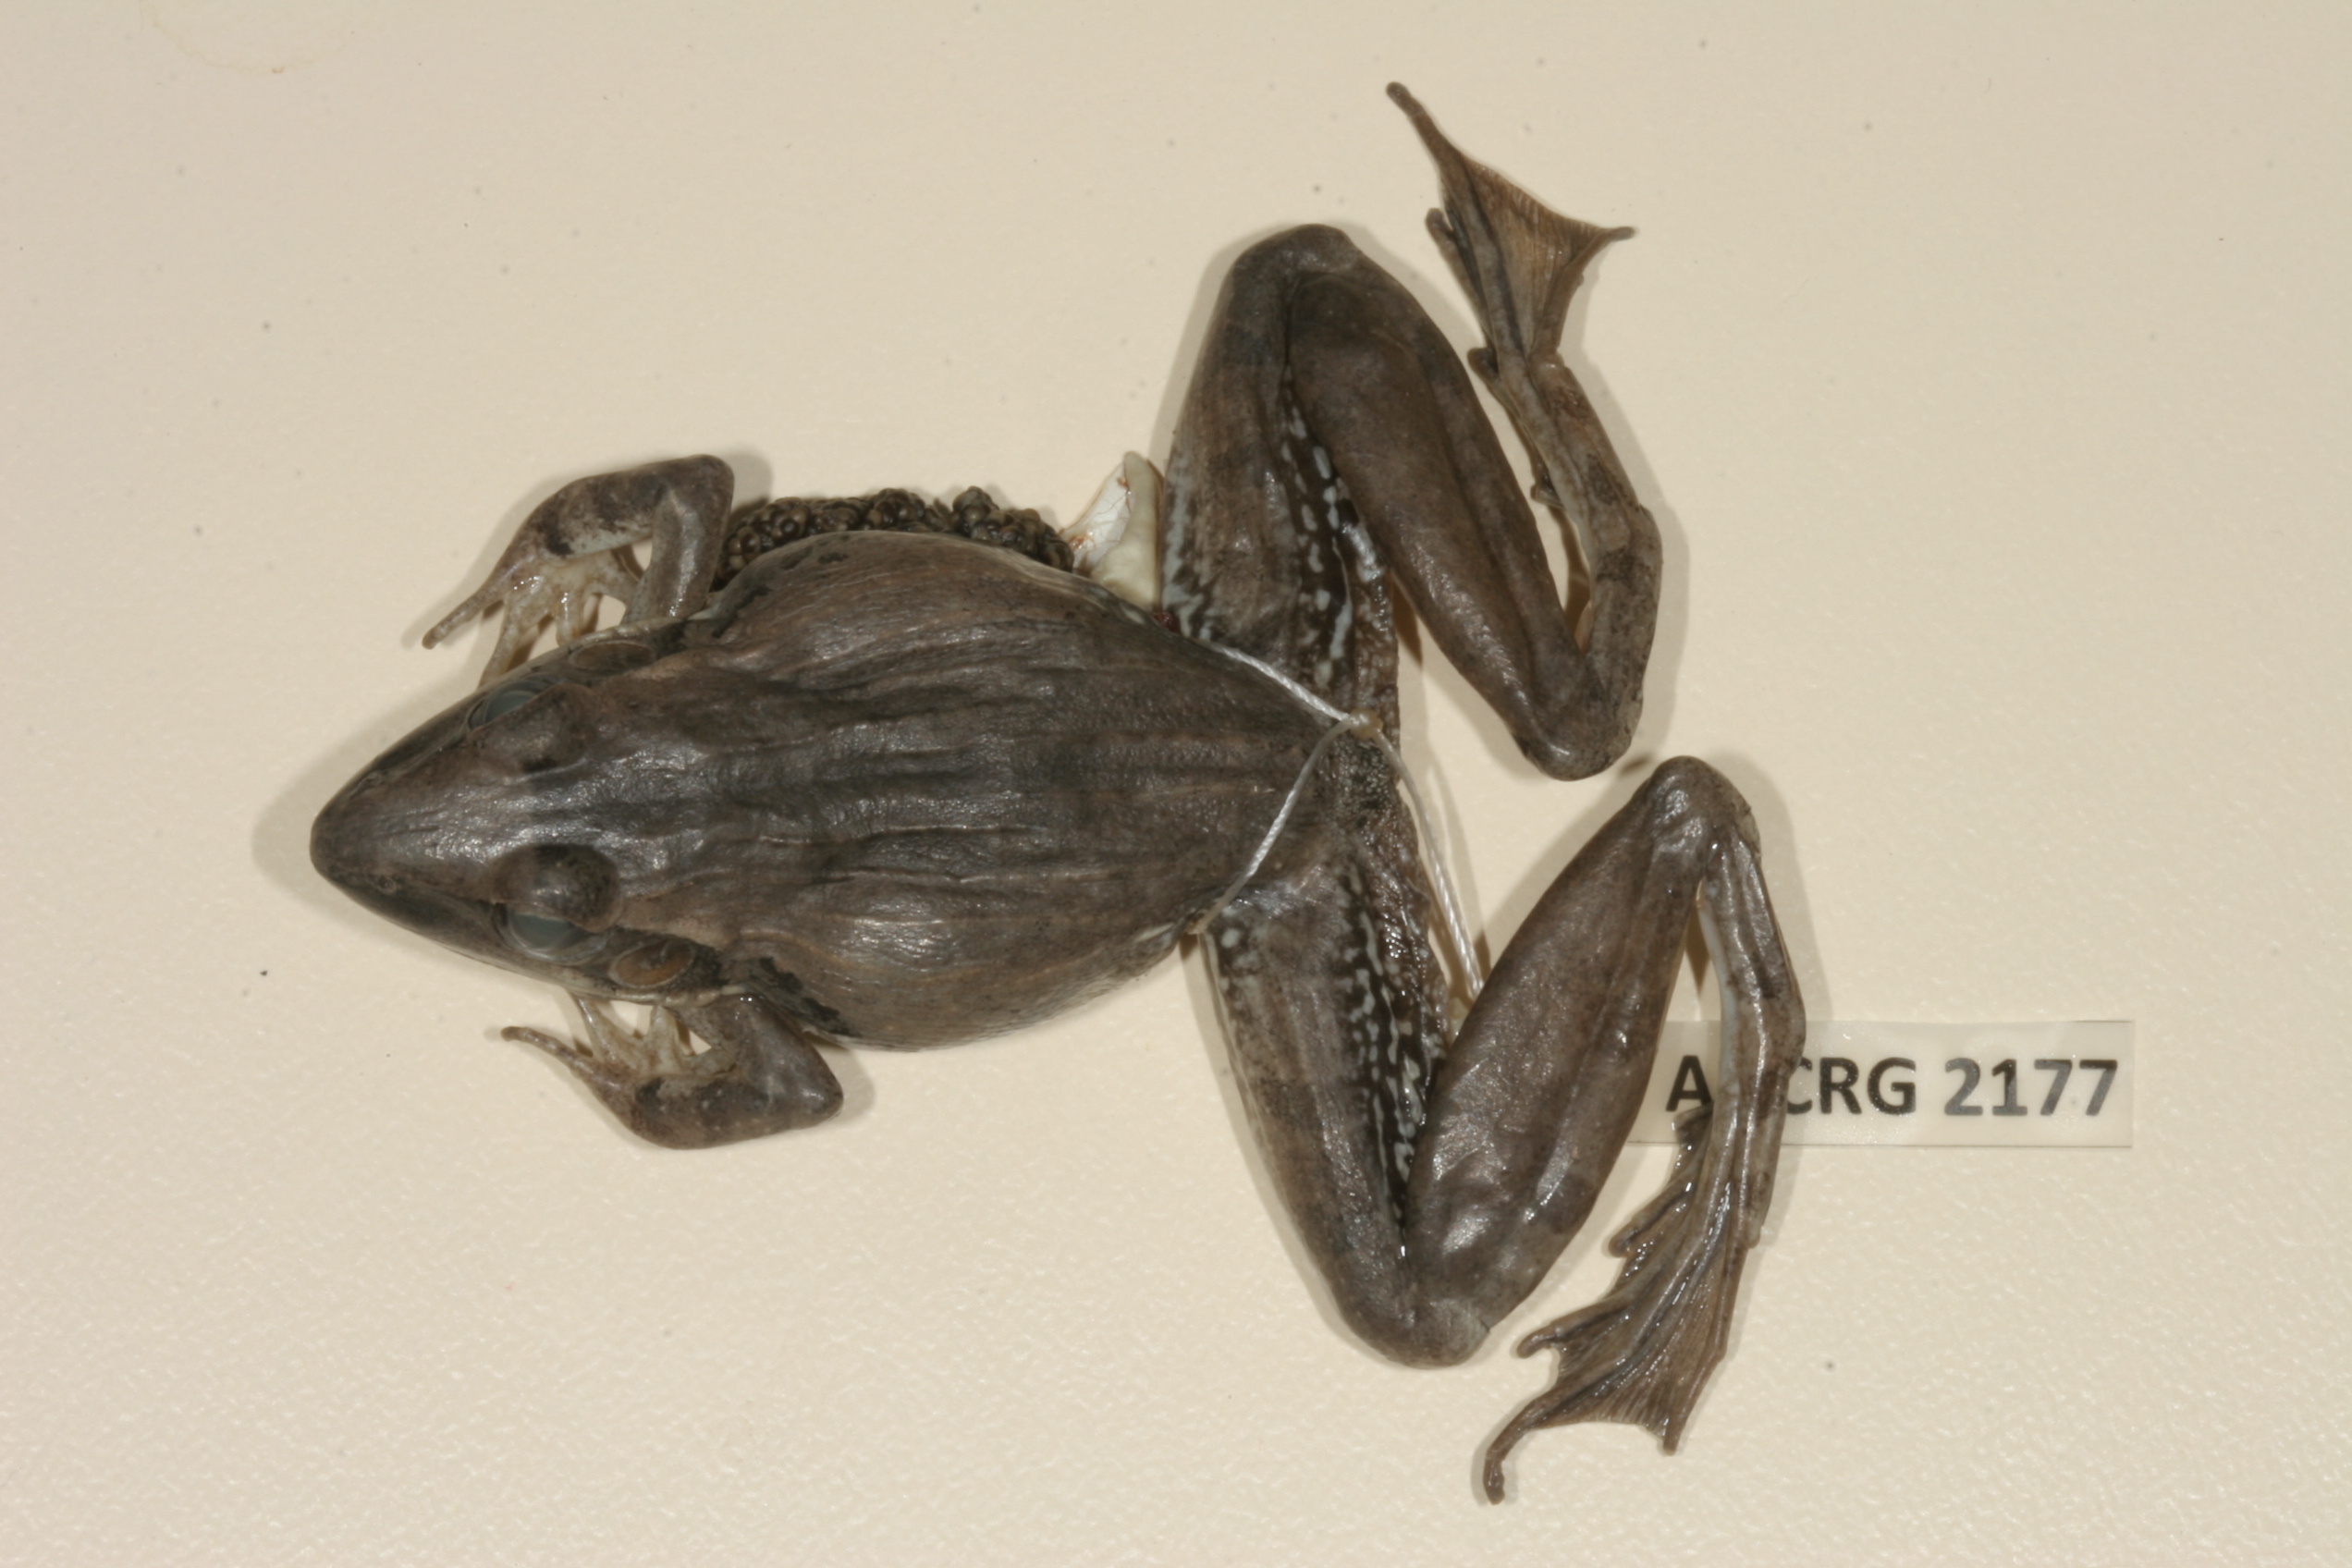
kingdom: Animalia
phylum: Chordata
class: Amphibia
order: Anura
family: Ptychadenidae
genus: Ptychadena
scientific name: Ptychadena anchietae
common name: Anchieta's ridged frog
